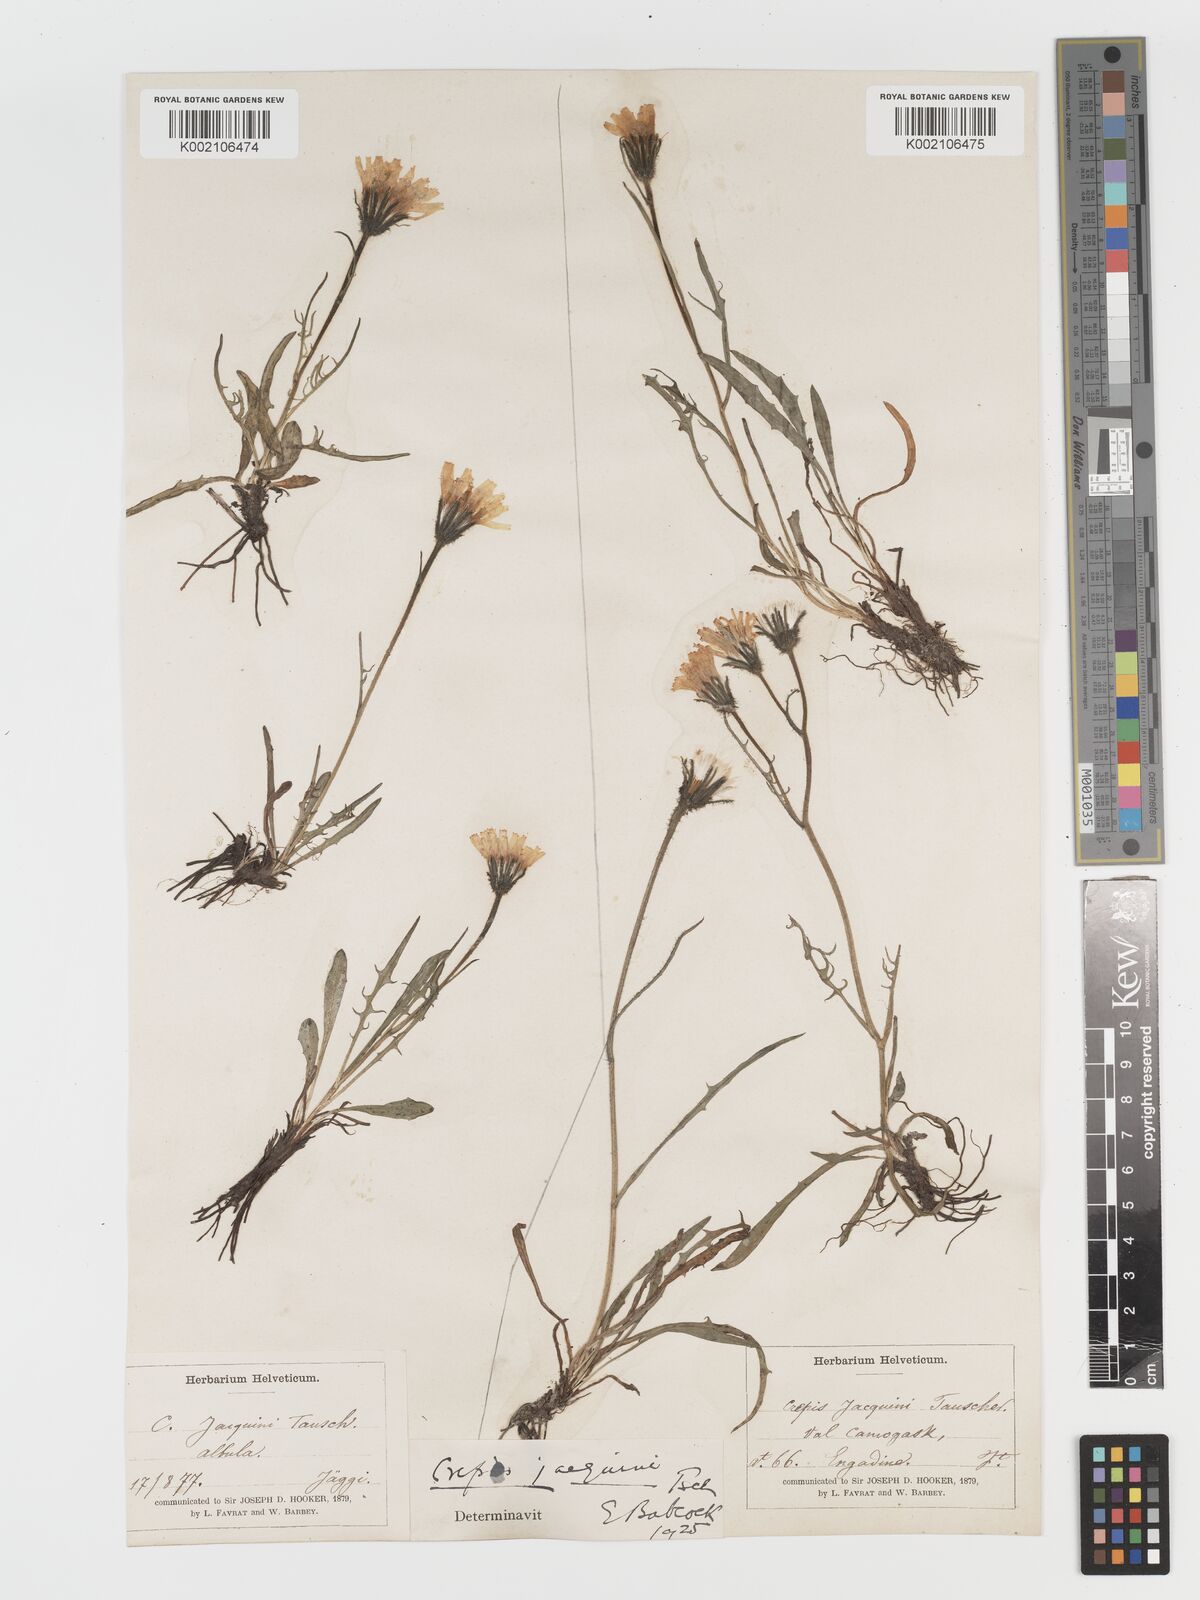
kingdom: Plantae
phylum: Tracheophyta
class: Magnoliopsida
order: Asterales
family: Asteraceae
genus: Crepis
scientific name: Crepis jacquinii
